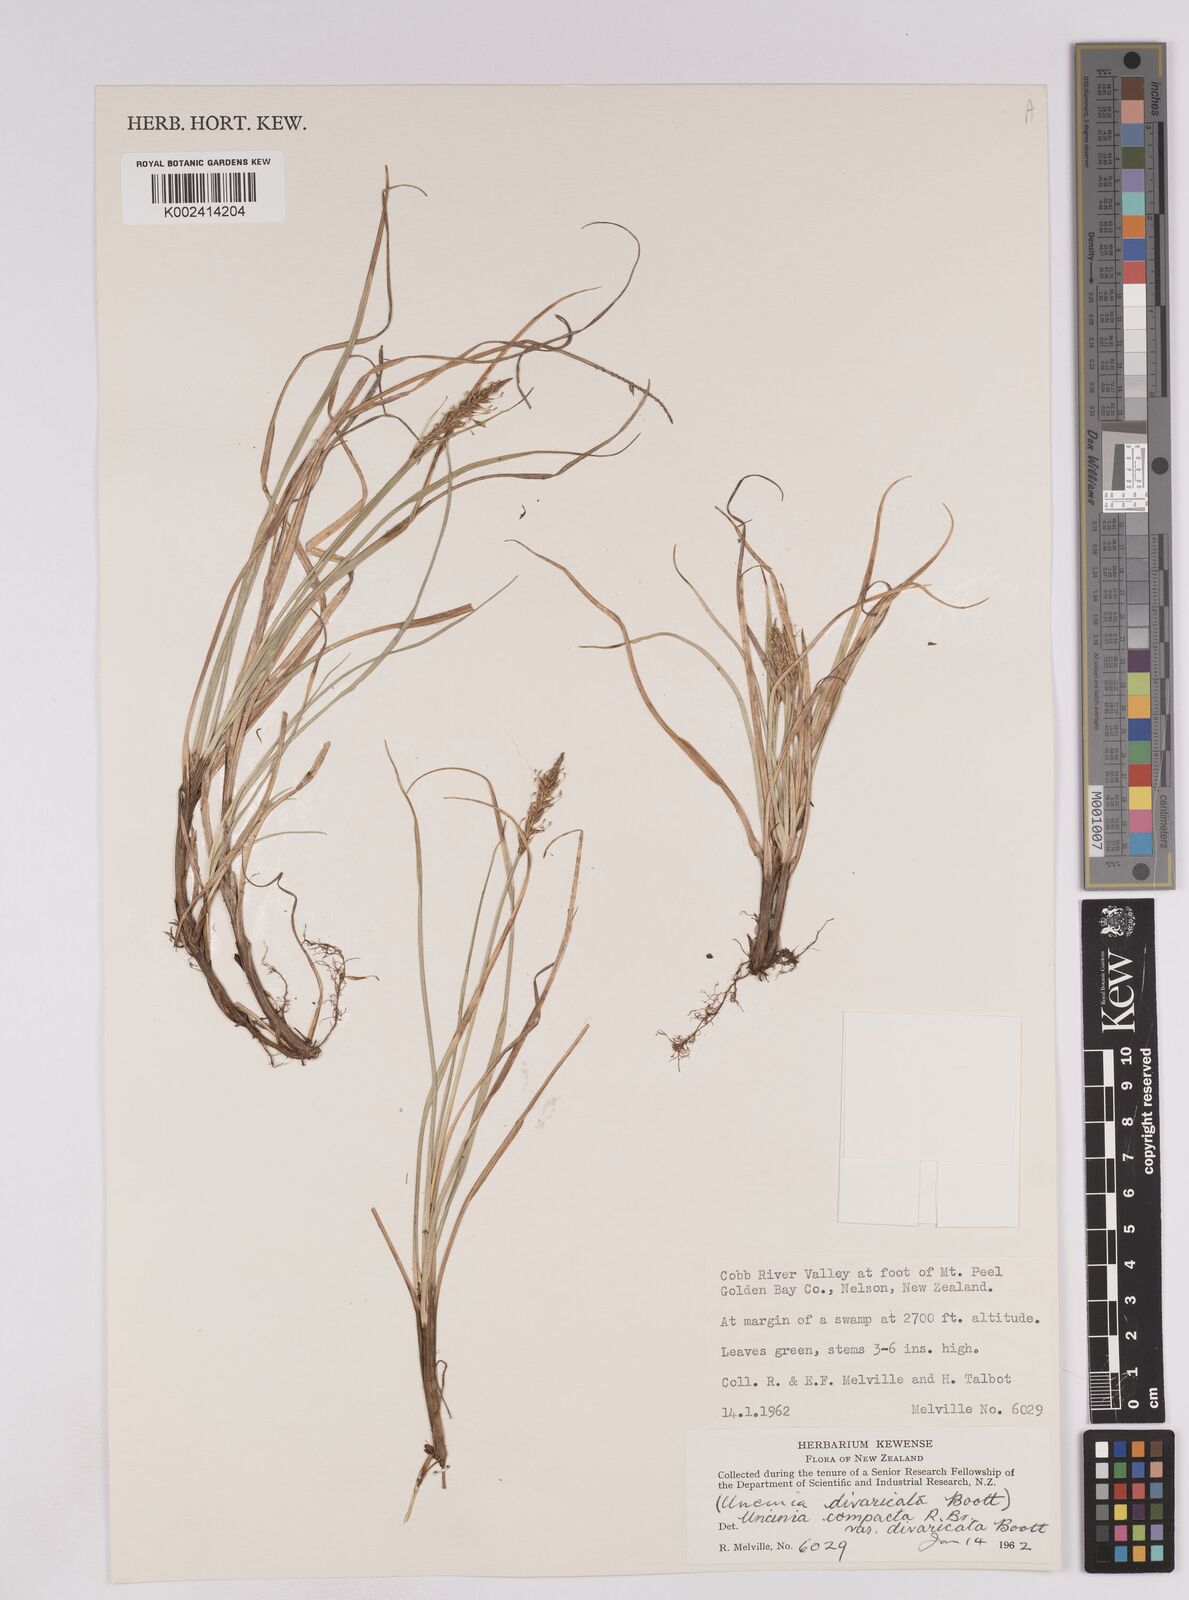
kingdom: Plantae
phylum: Tracheophyta
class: Liliopsida
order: Poales
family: Cyperaceae
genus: Carex
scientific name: Carex austrocompacta
